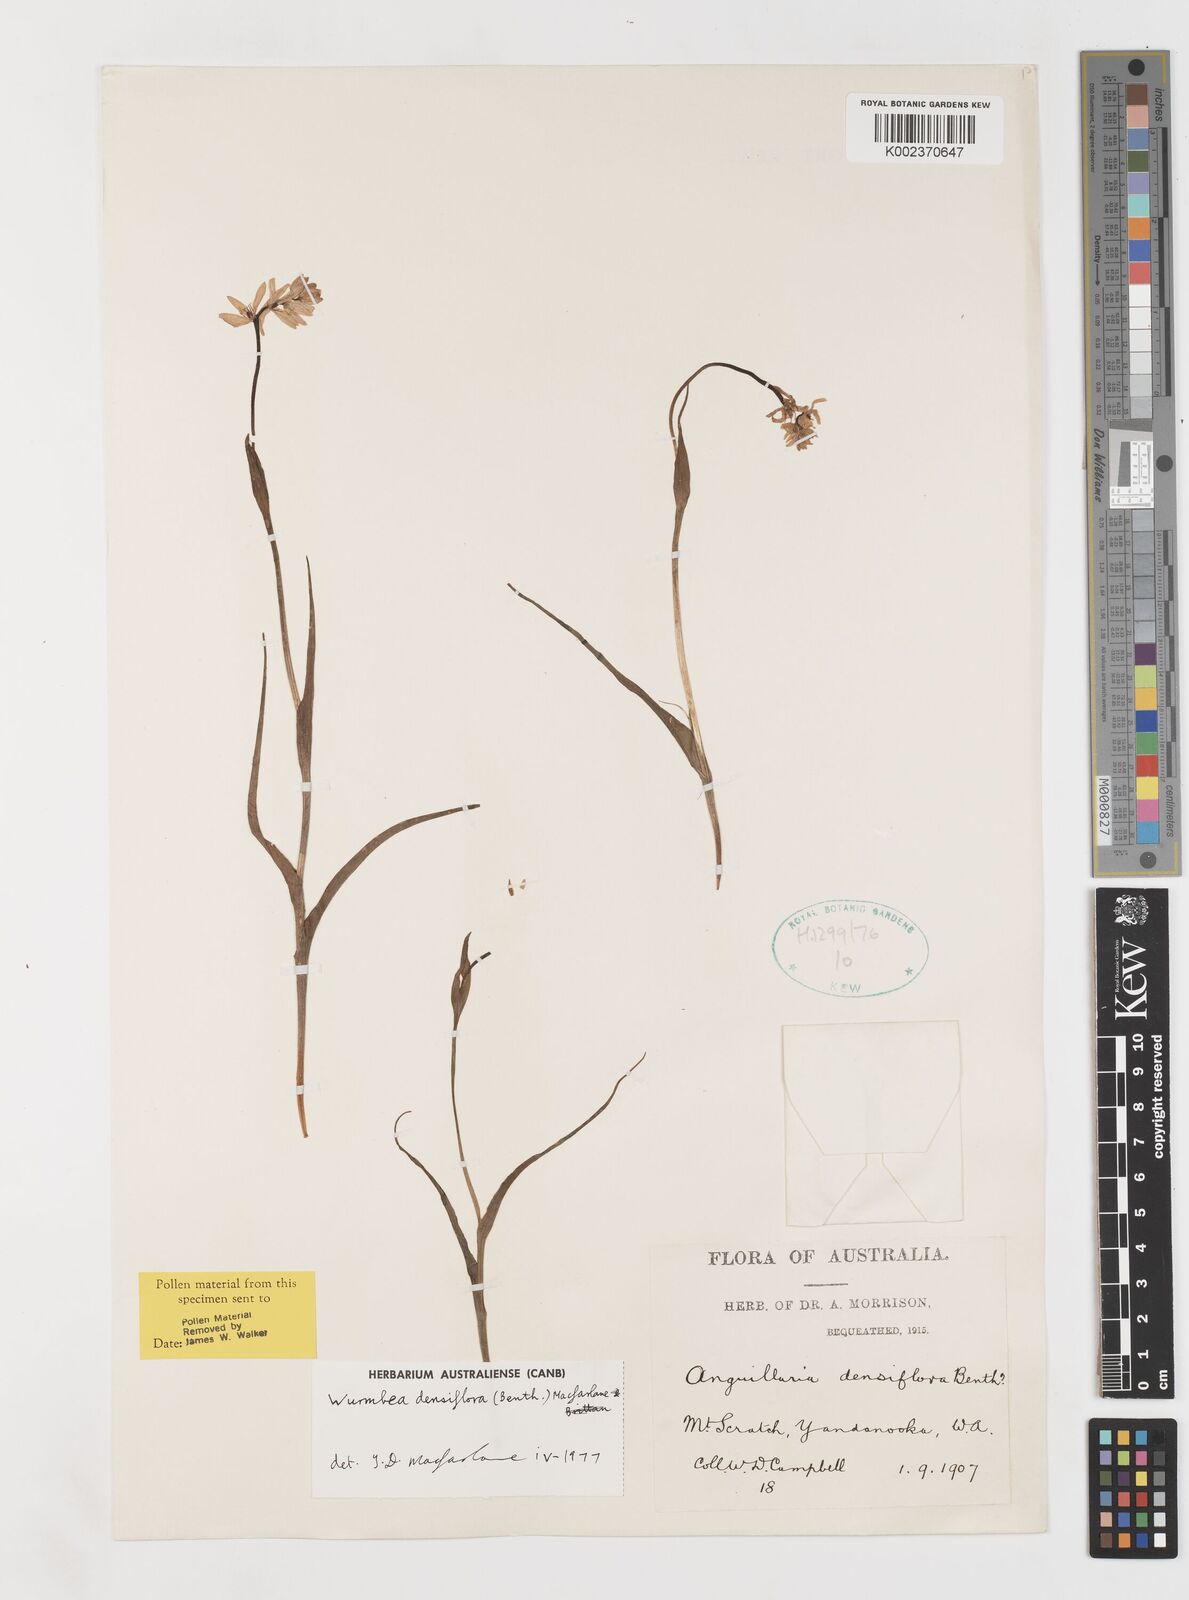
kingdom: Plantae
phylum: Tracheophyta
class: Liliopsida
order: Liliales
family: Colchicaceae
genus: Wurmbea
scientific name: Wurmbea densiflora
